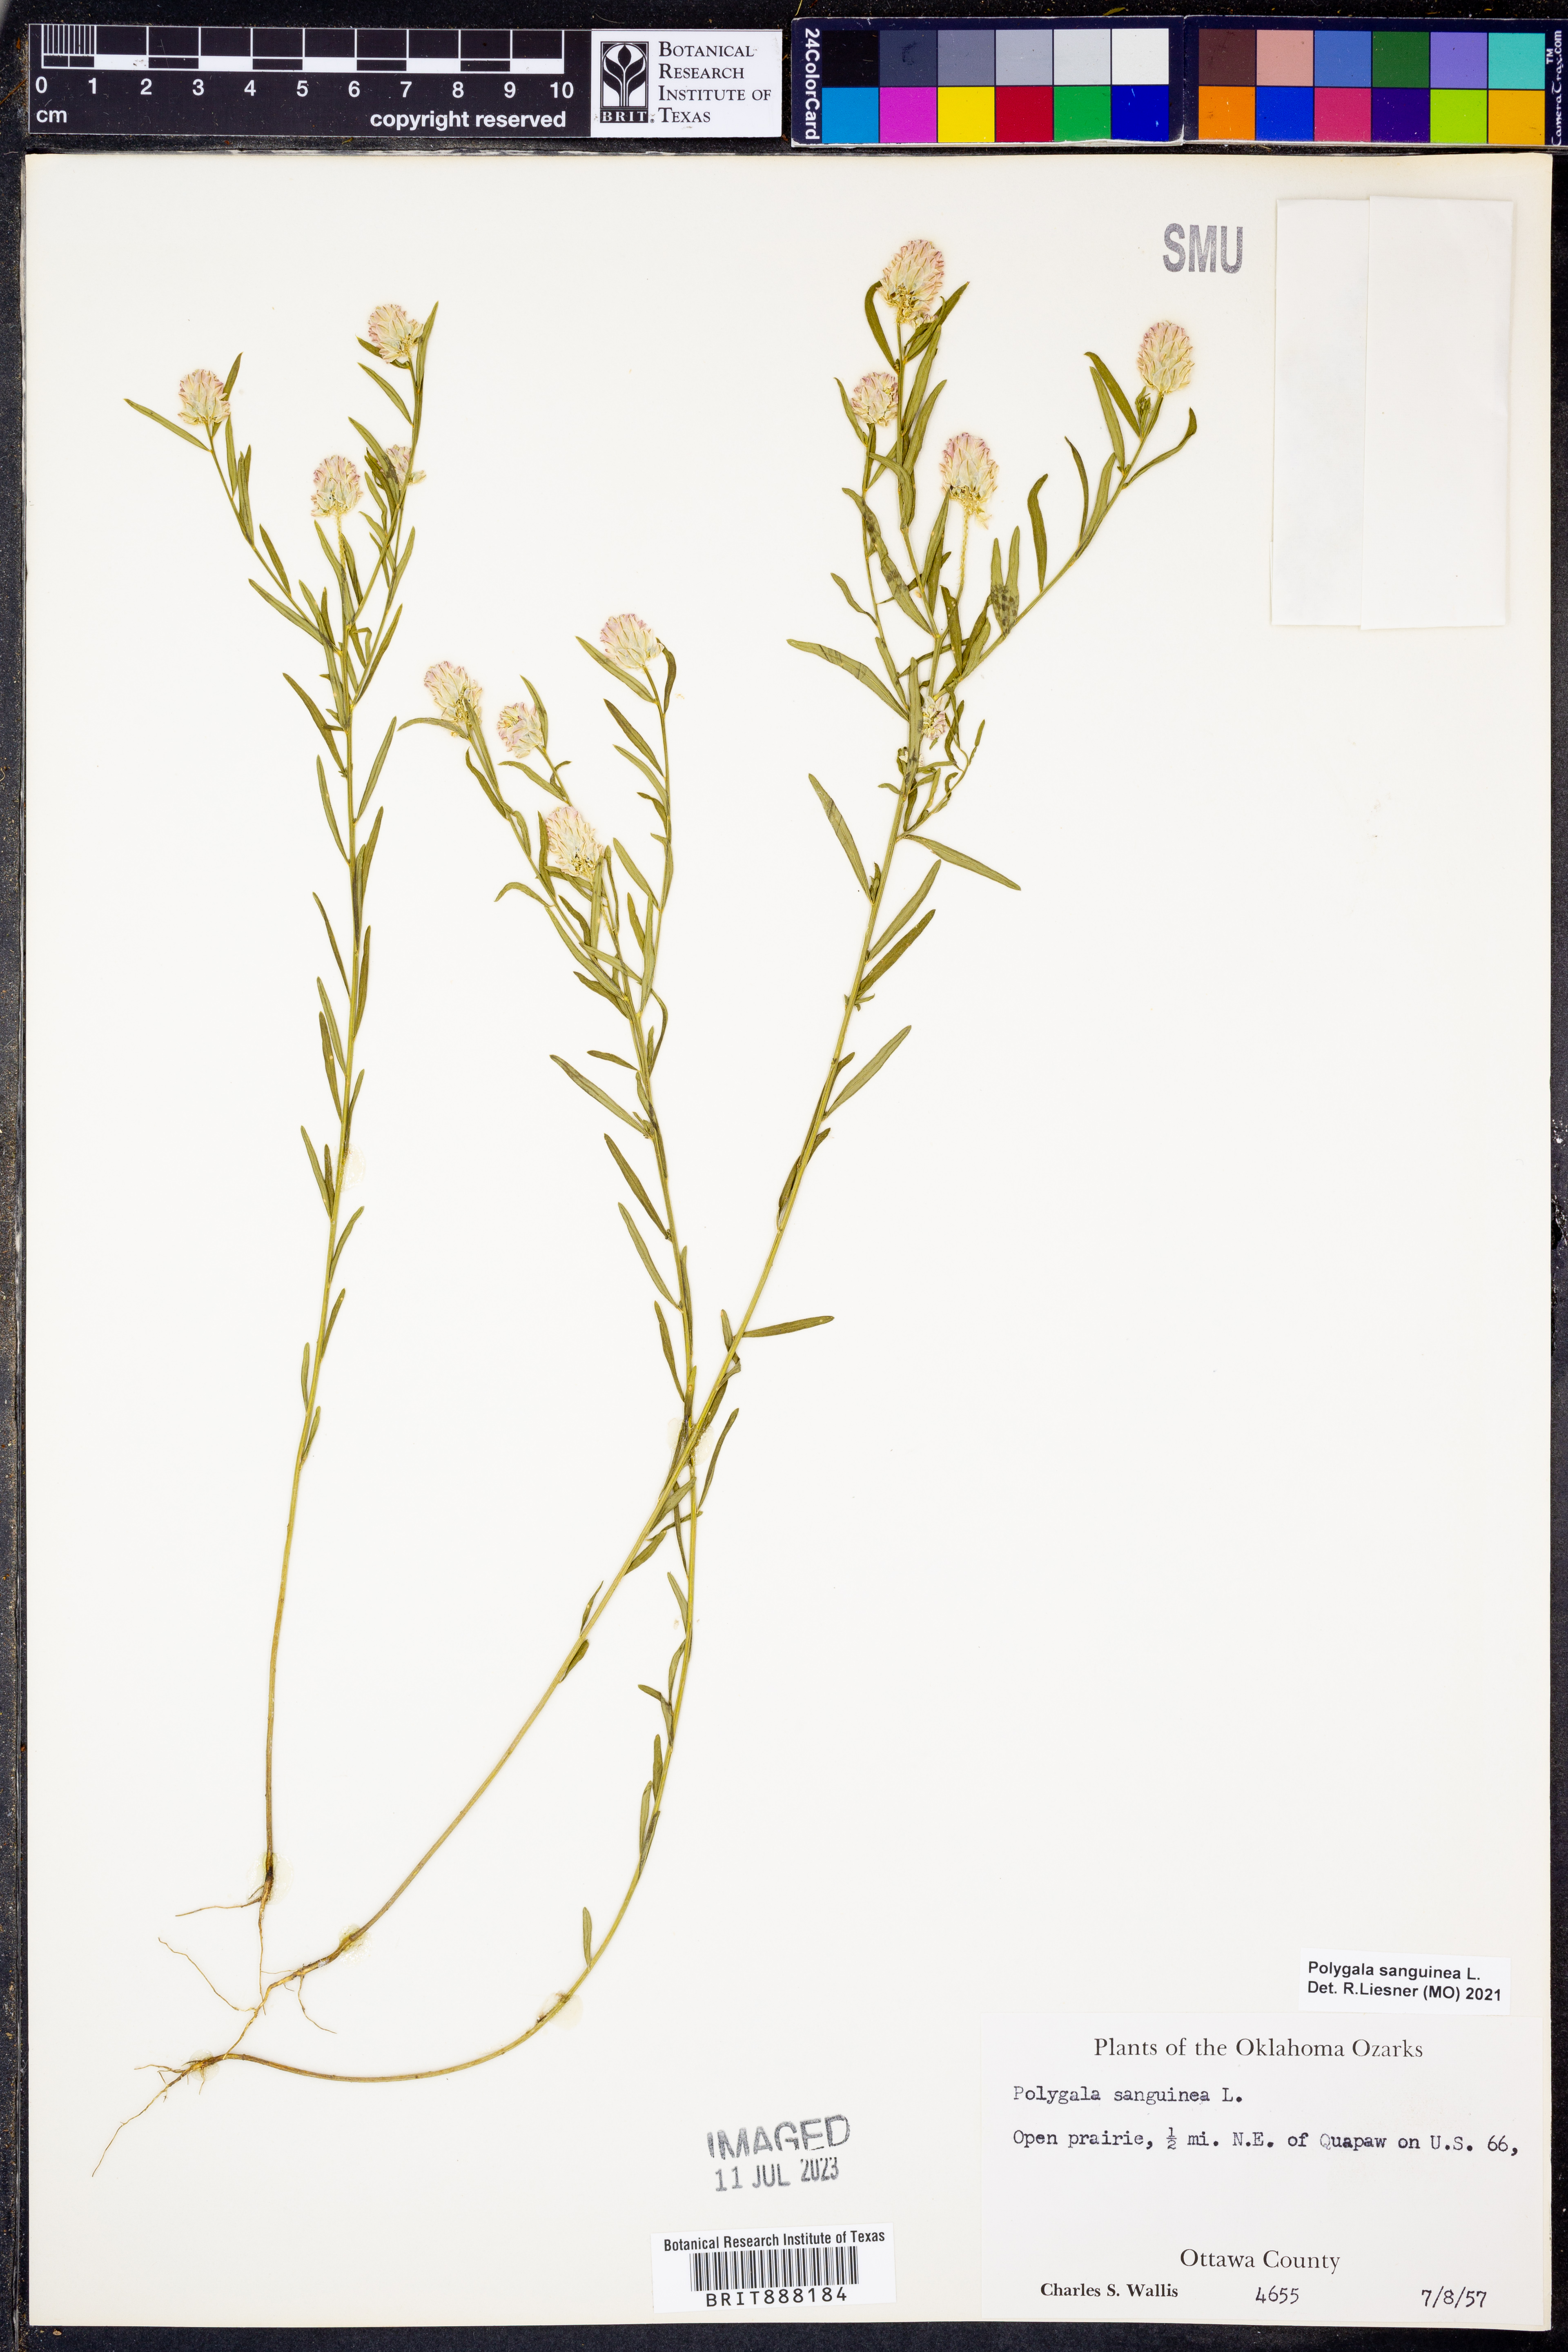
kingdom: Plantae
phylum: Tracheophyta
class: Magnoliopsida
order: Fabales
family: Polygalaceae
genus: Polygala
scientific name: Polygala sanguinea
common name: Blood milkwort
